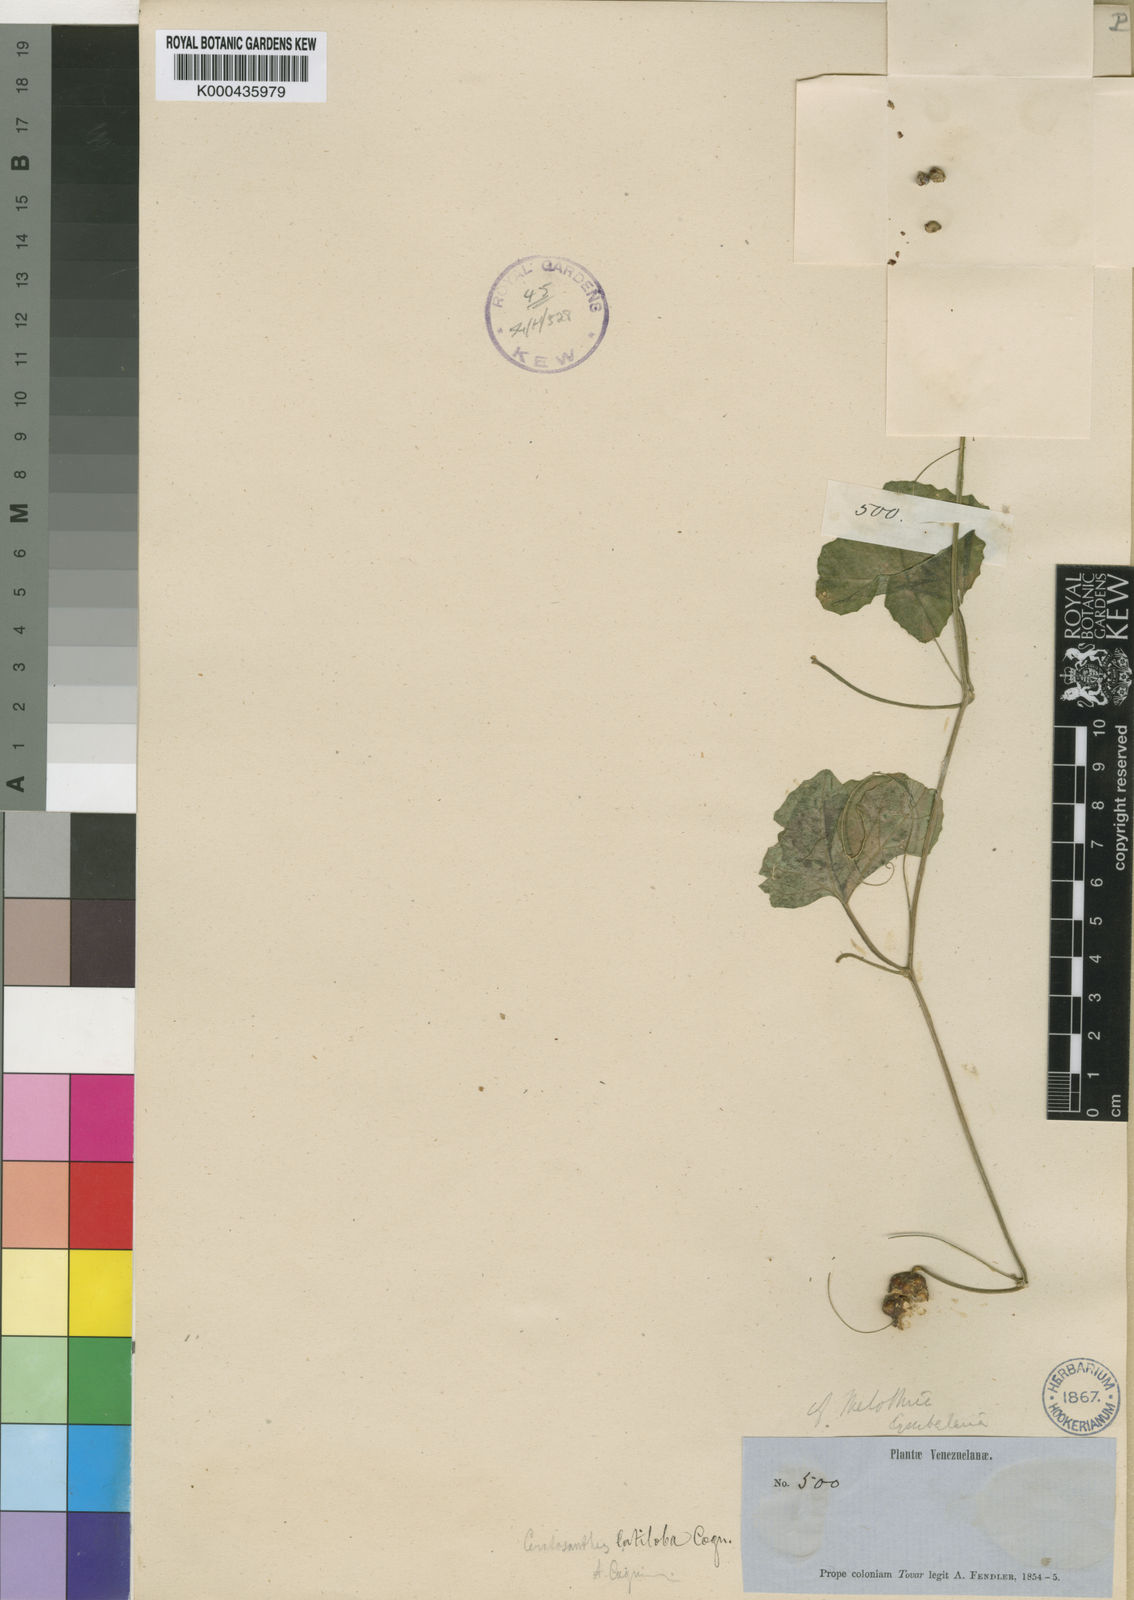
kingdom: Plantae
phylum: Tracheophyta
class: Magnoliopsida
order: Cucurbitales
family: Cucurbitaceae
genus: Ceratosanthes
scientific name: Ceratosanthes palmata
